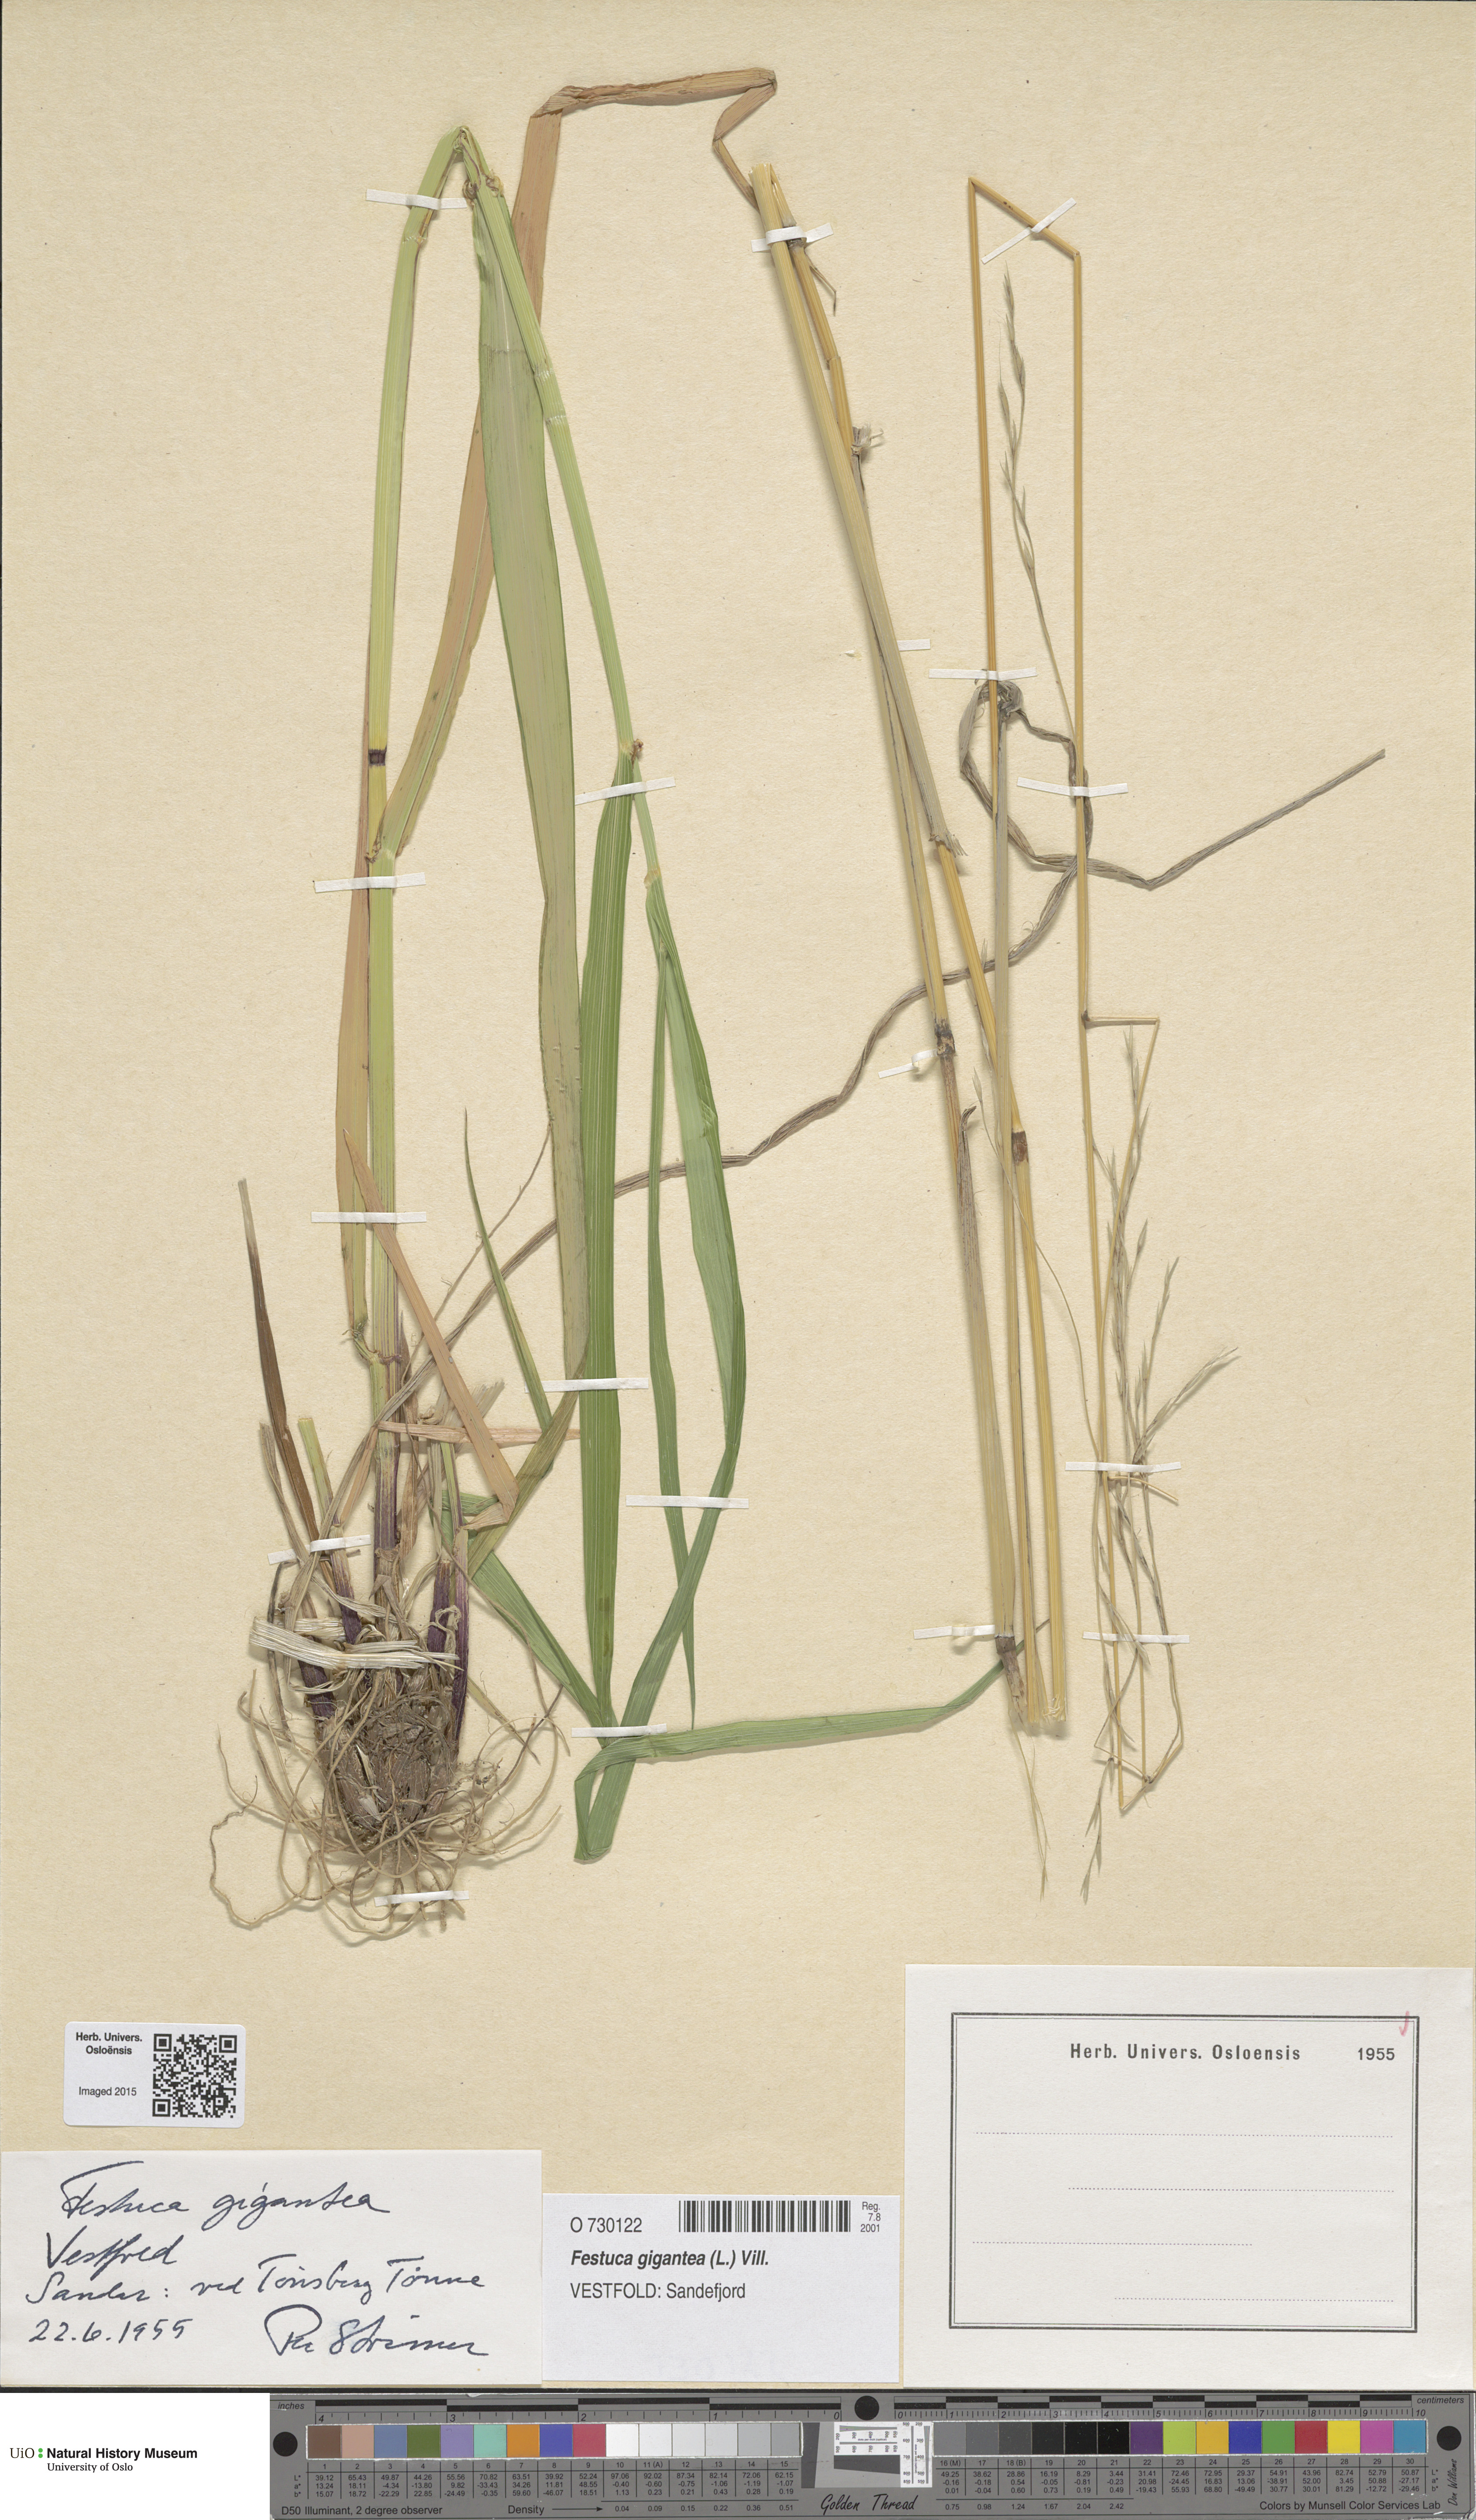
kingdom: Plantae
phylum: Tracheophyta
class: Liliopsida
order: Poales
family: Poaceae
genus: Lolium
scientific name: Lolium giganteum
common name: Giant fescue
